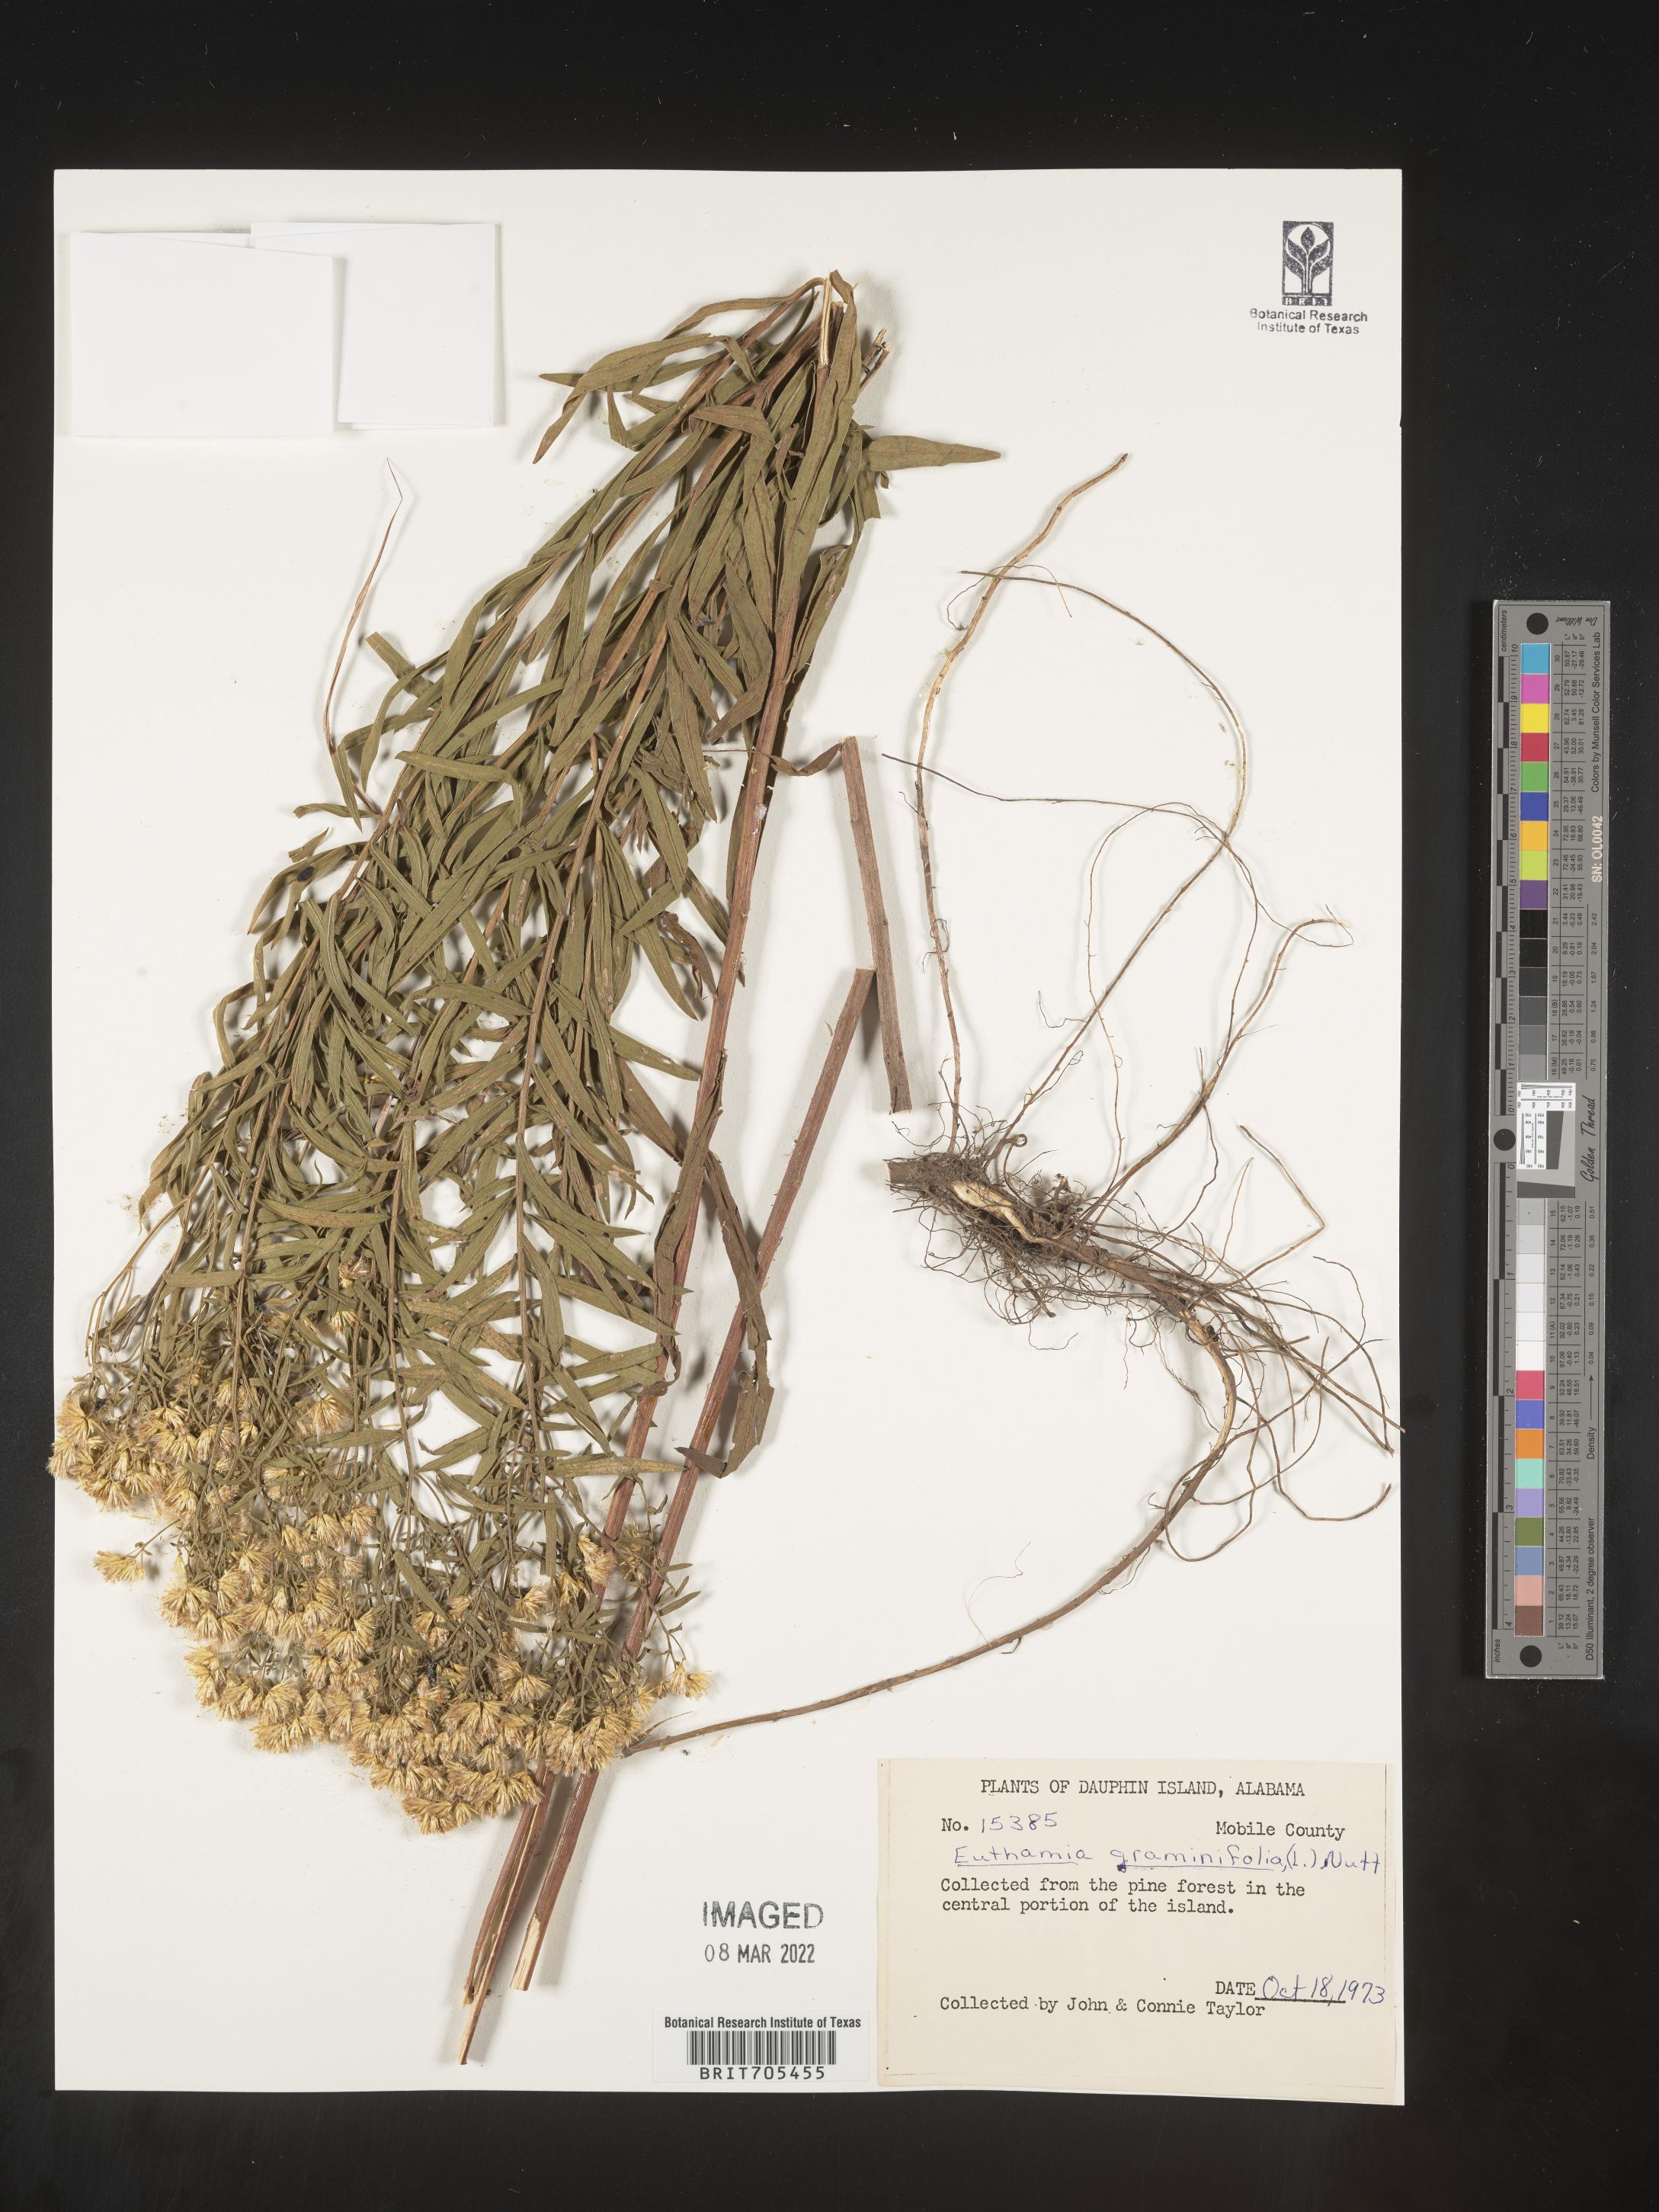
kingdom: Plantae
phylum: Tracheophyta
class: Magnoliopsida
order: Asterales
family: Asteraceae
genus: Euthamia
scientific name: Euthamia graminifolia
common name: Common goldentop
